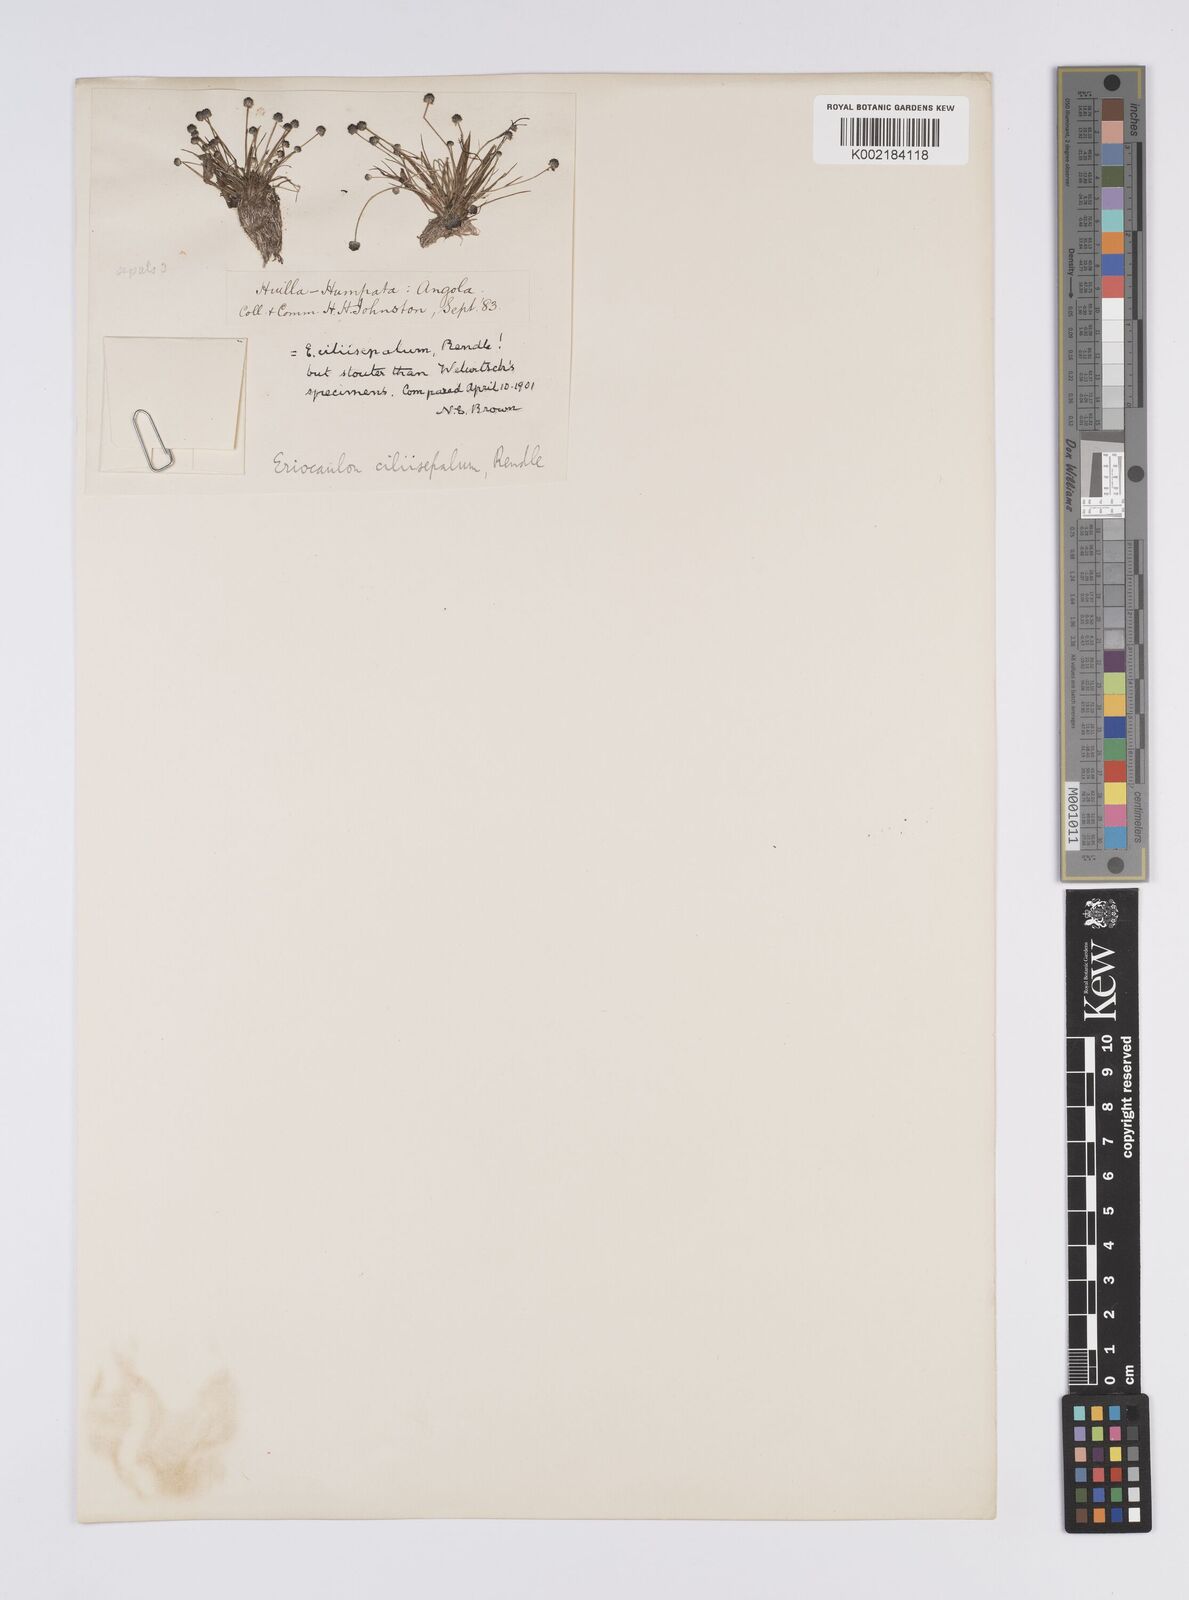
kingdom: Plantae
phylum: Tracheophyta
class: Liliopsida
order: Poales
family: Eriocaulaceae
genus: Eriocaulon
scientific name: Eriocaulon
